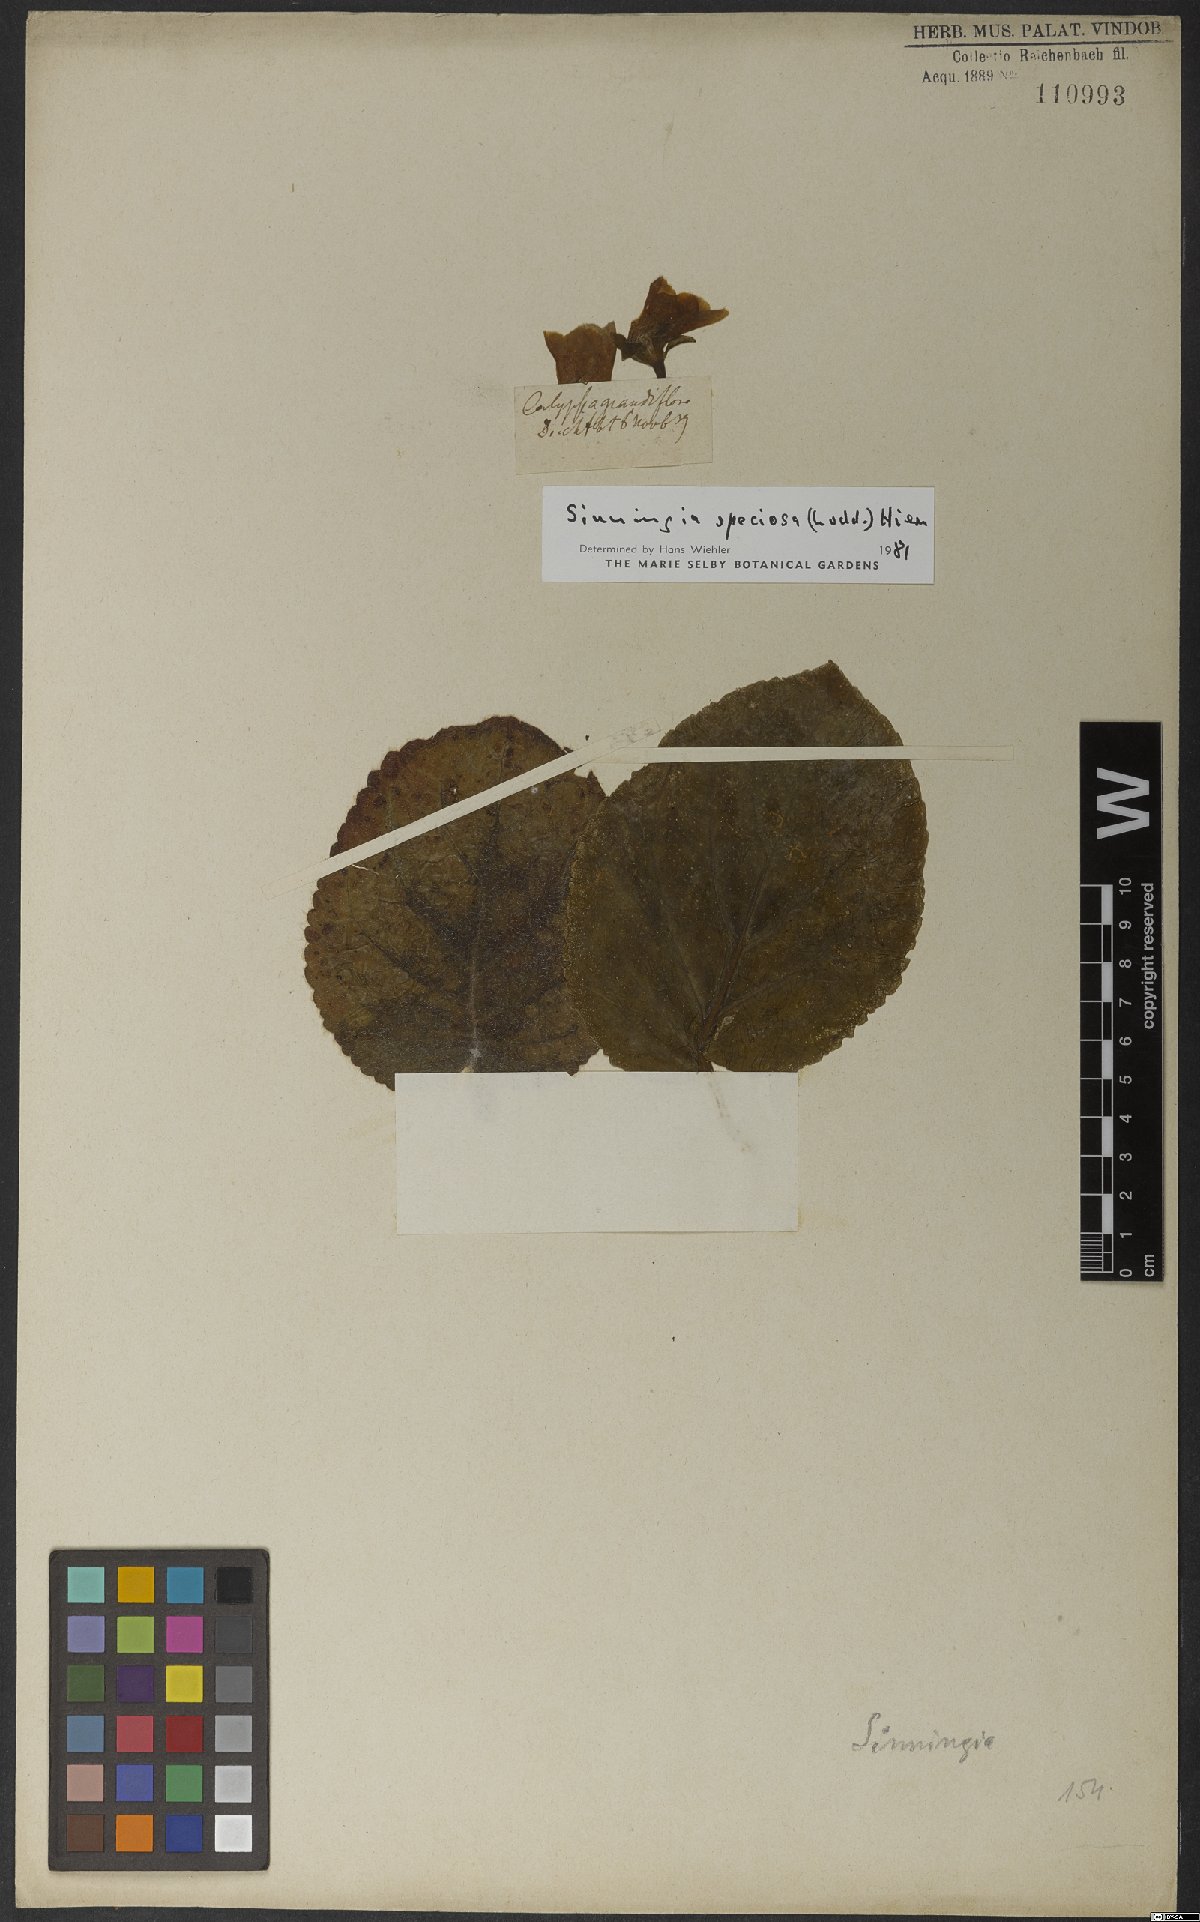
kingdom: Plantae
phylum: Tracheophyta
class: Magnoliopsida
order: Lamiales
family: Gesneriaceae
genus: Sinningia
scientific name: Sinningia speciosa
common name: Brazilian gloxinia
